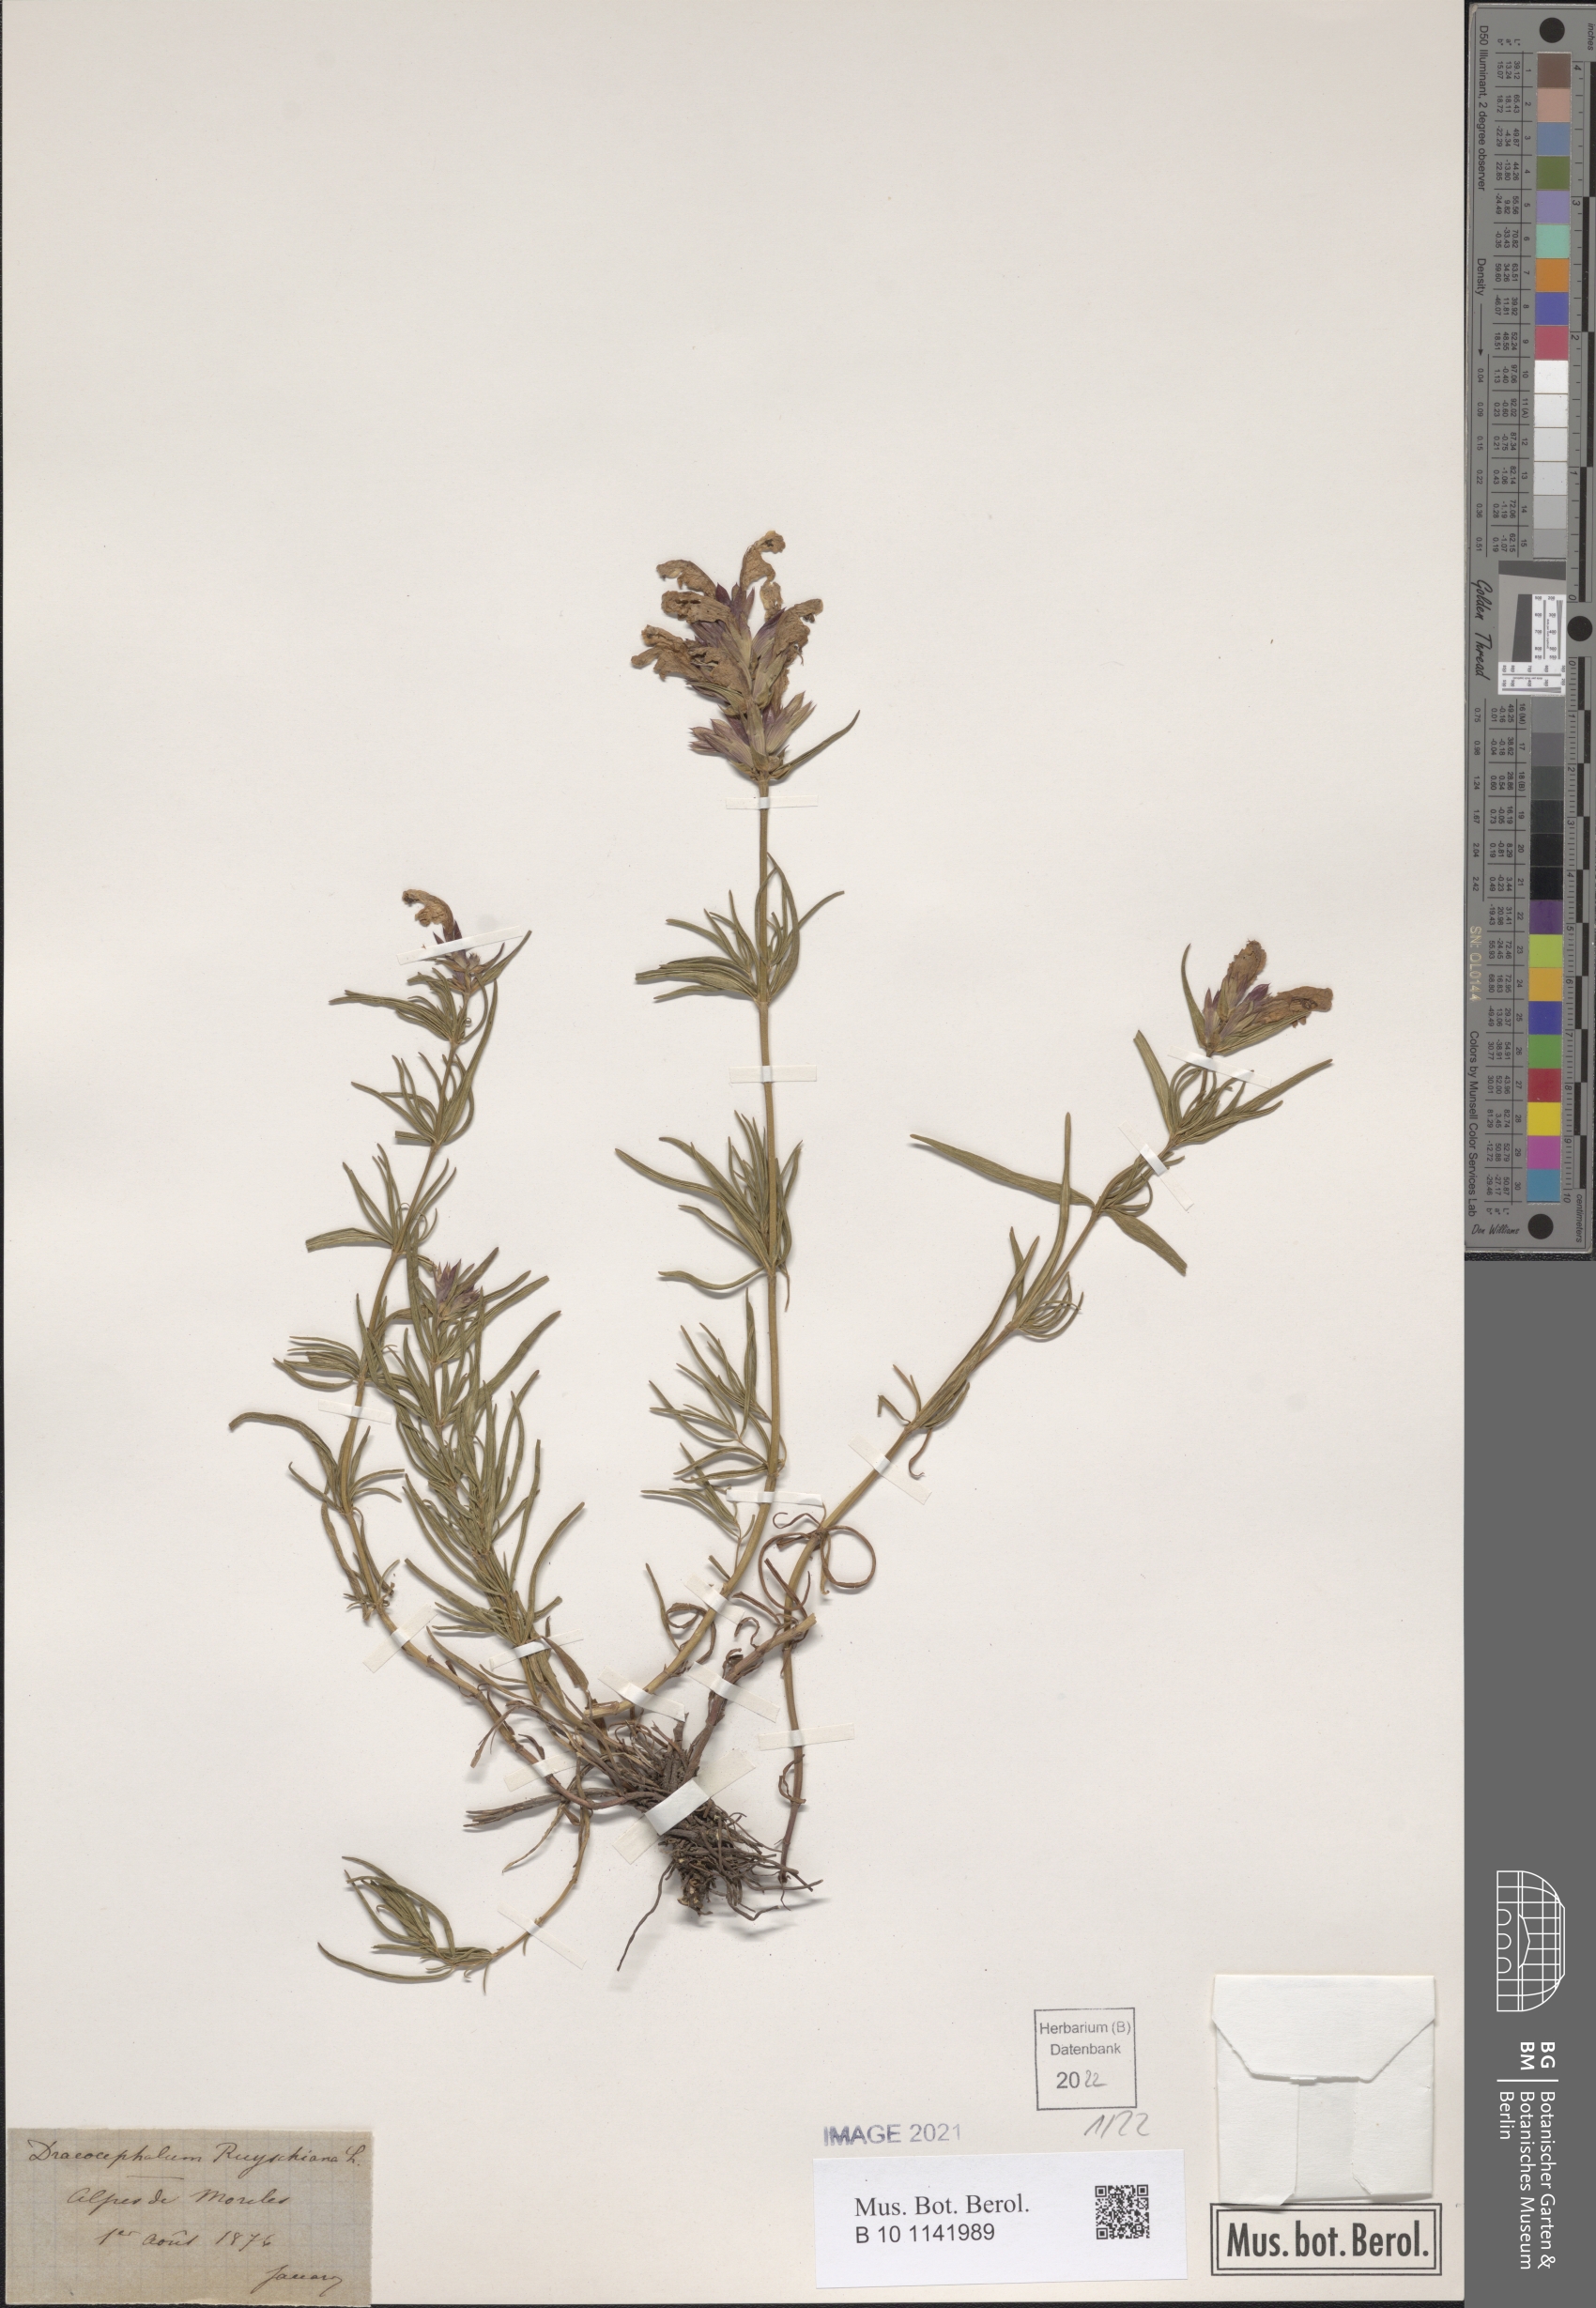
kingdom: Plantae
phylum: Tracheophyta
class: Magnoliopsida
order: Lamiales
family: Lamiaceae
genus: Dracocephalum
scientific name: Dracocephalum ruyschiana
